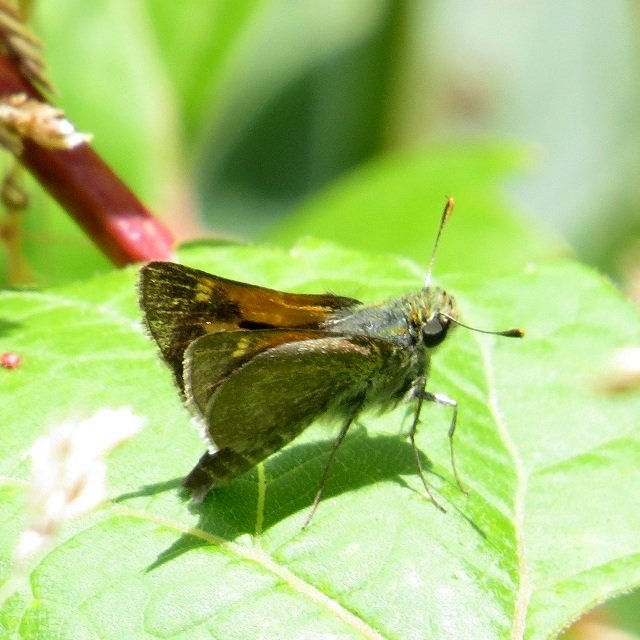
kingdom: Animalia
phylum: Arthropoda
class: Insecta
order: Lepidoptera
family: Hesperiidae
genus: Polites
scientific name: Polites themistocles
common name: Tawny-edged Skipper
